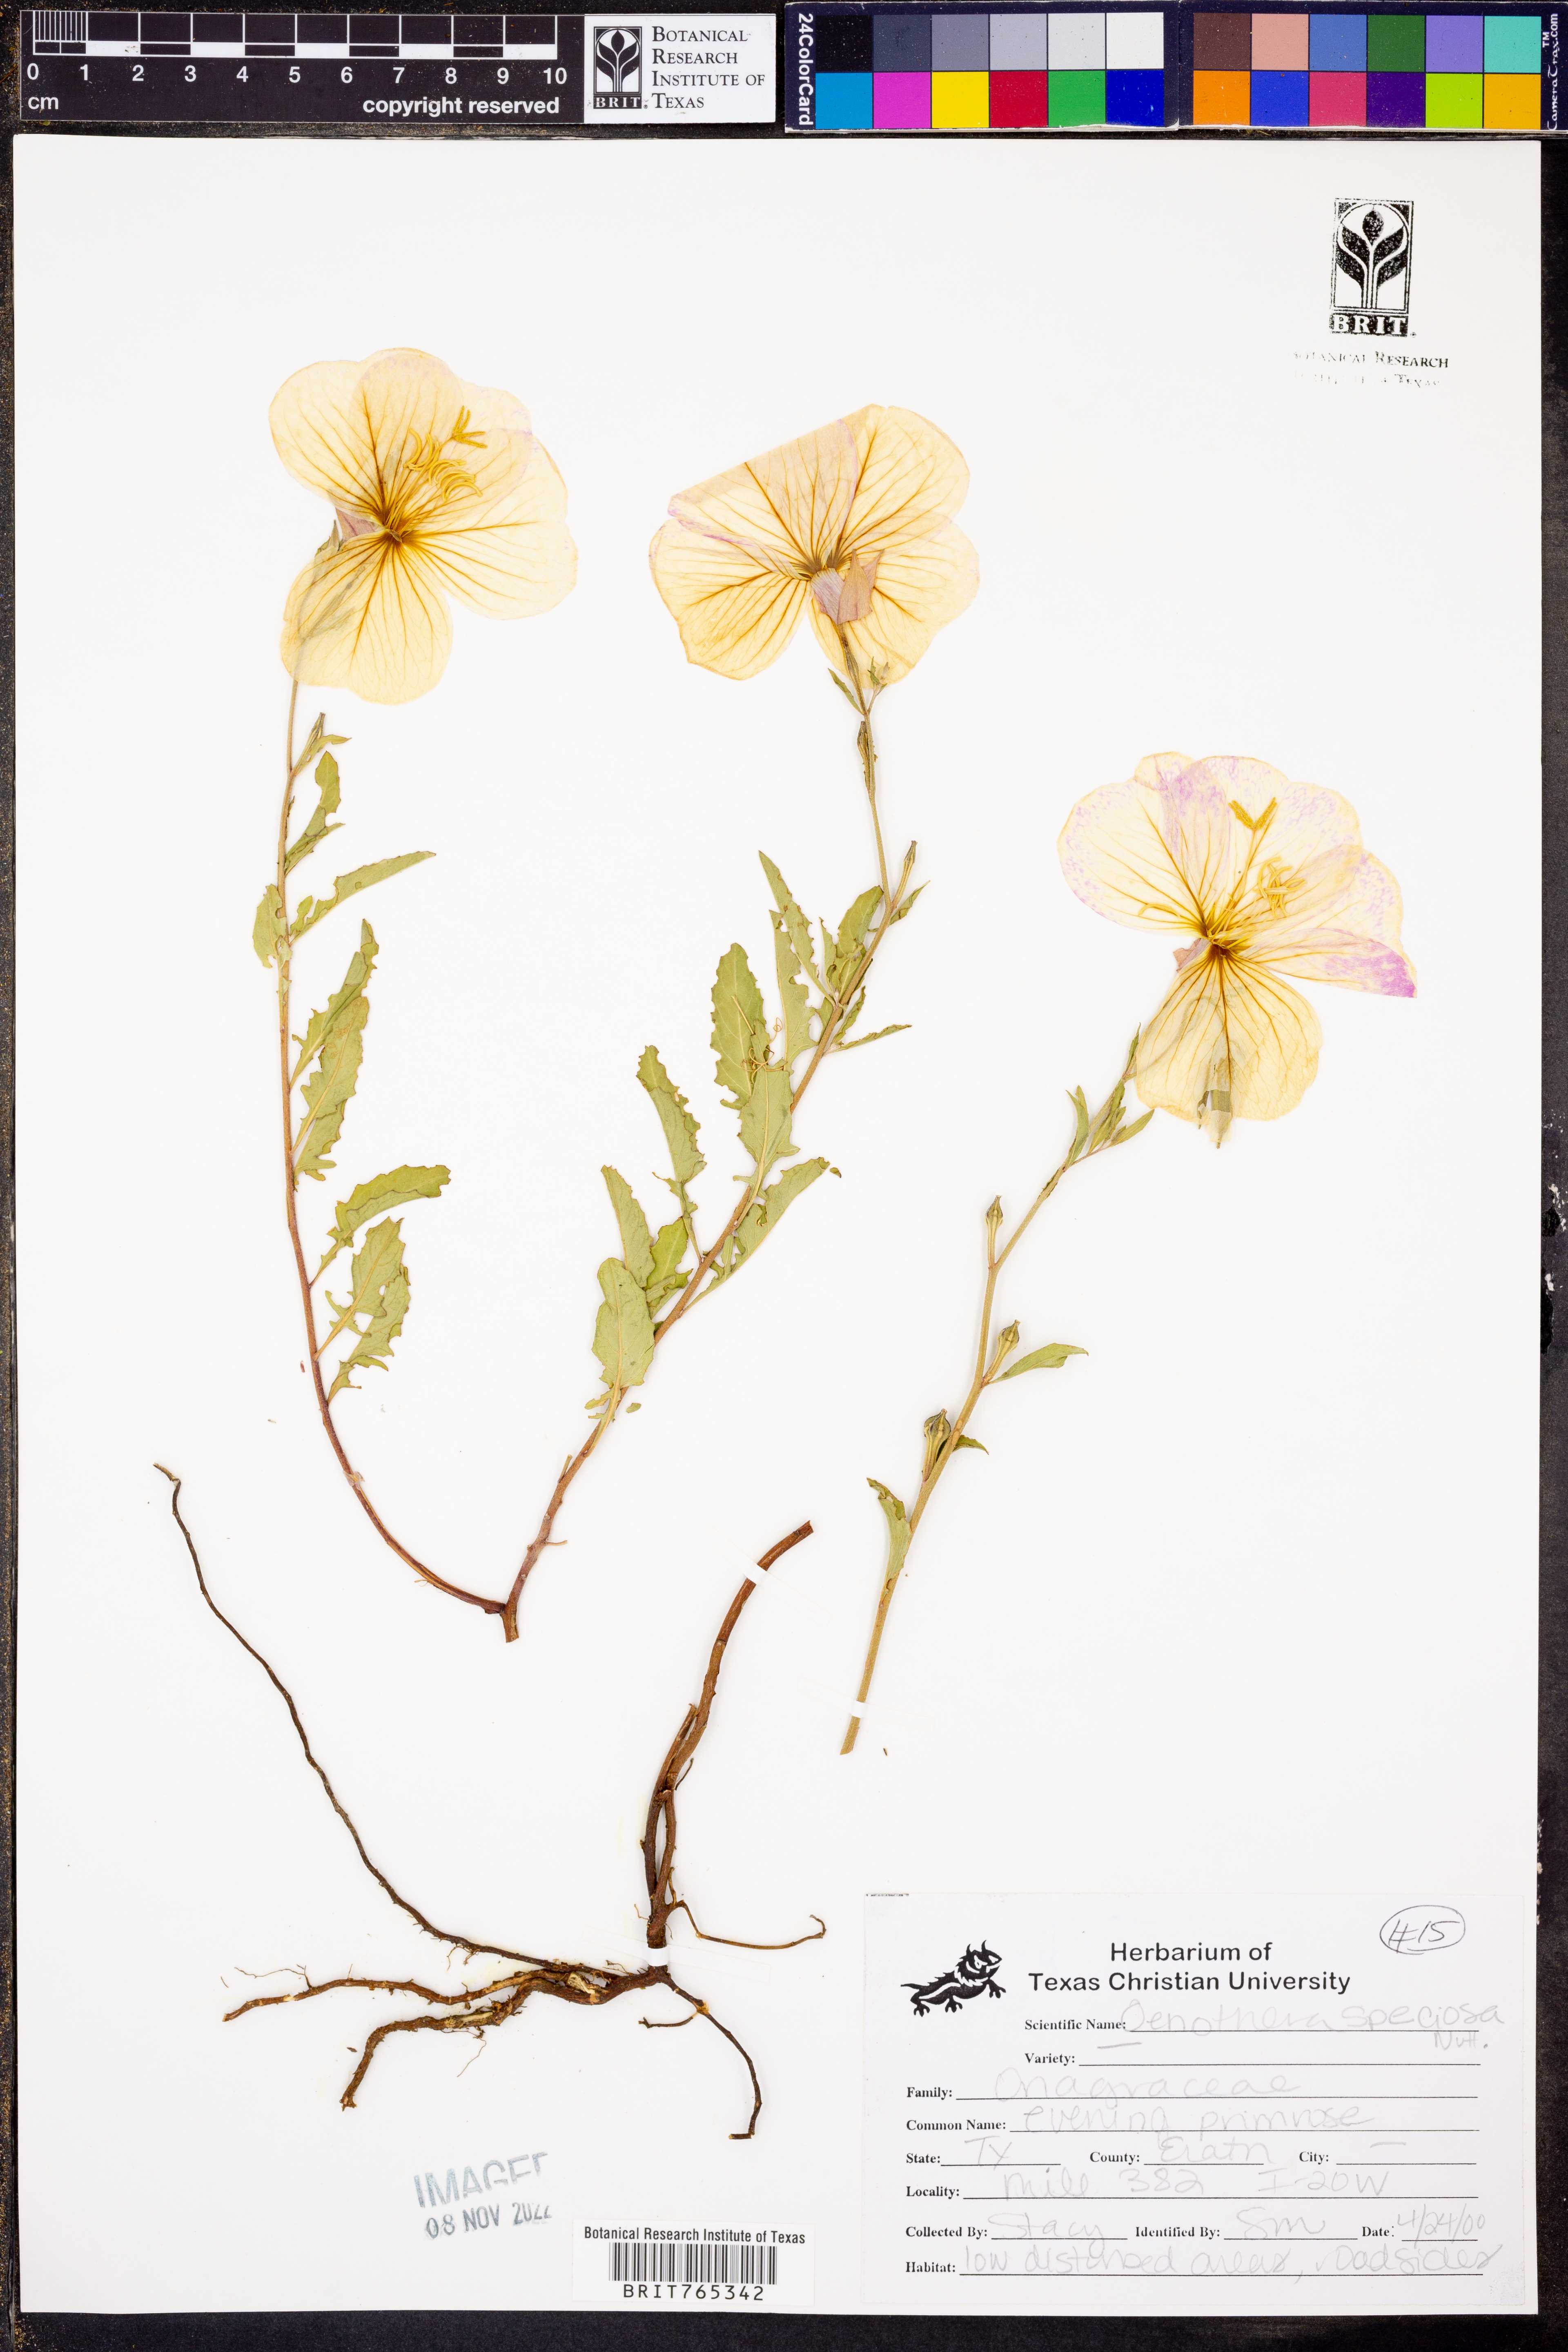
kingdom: Plantae
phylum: Tracheophyta
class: Magnoliopsida
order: Myrtales
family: Onagraceae
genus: Oenothera
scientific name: Oenothera speciosa
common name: White evening-primrose
